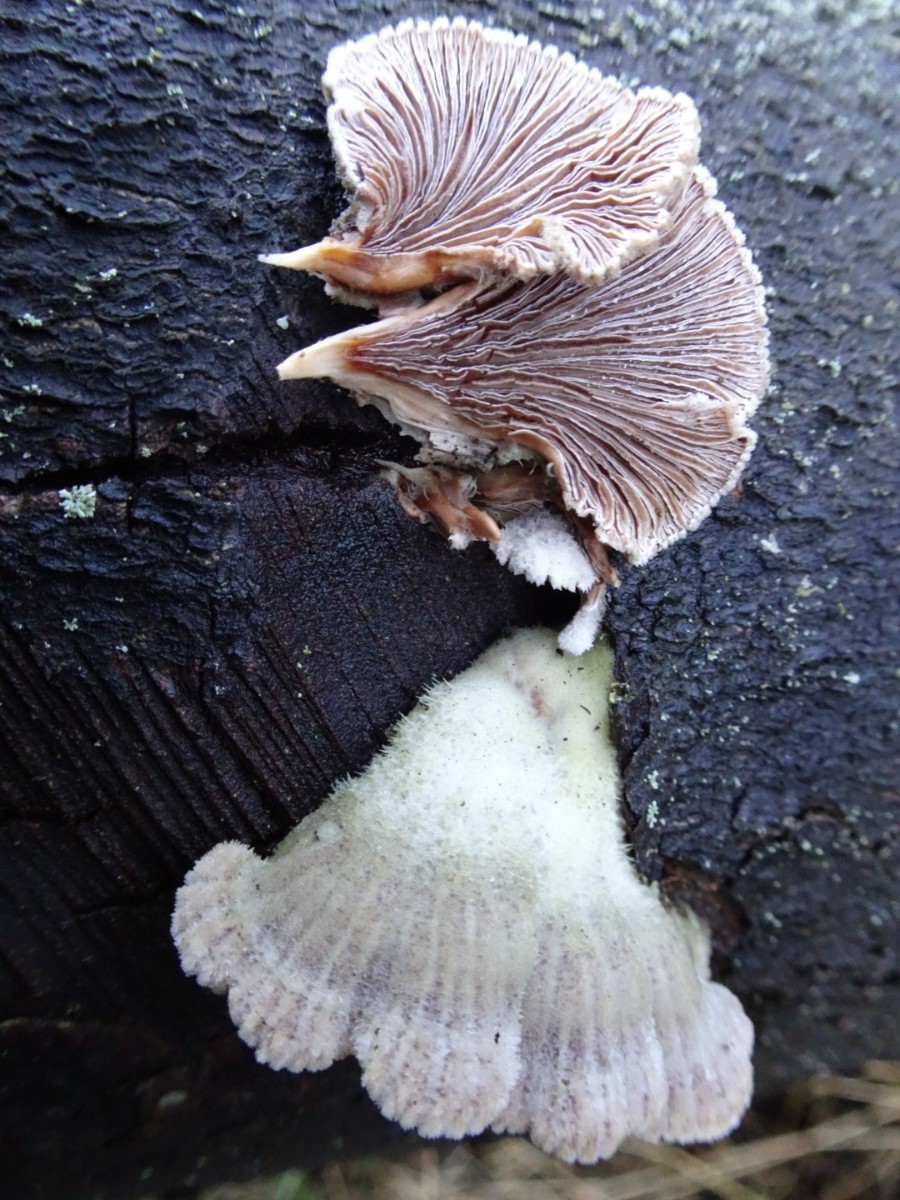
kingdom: Fungi
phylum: Basidiomycota
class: Agaricomycetes
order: Agaricales
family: Schizophyllaceae
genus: Schizophyllum
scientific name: Schizophyllum commune
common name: kløvblad
